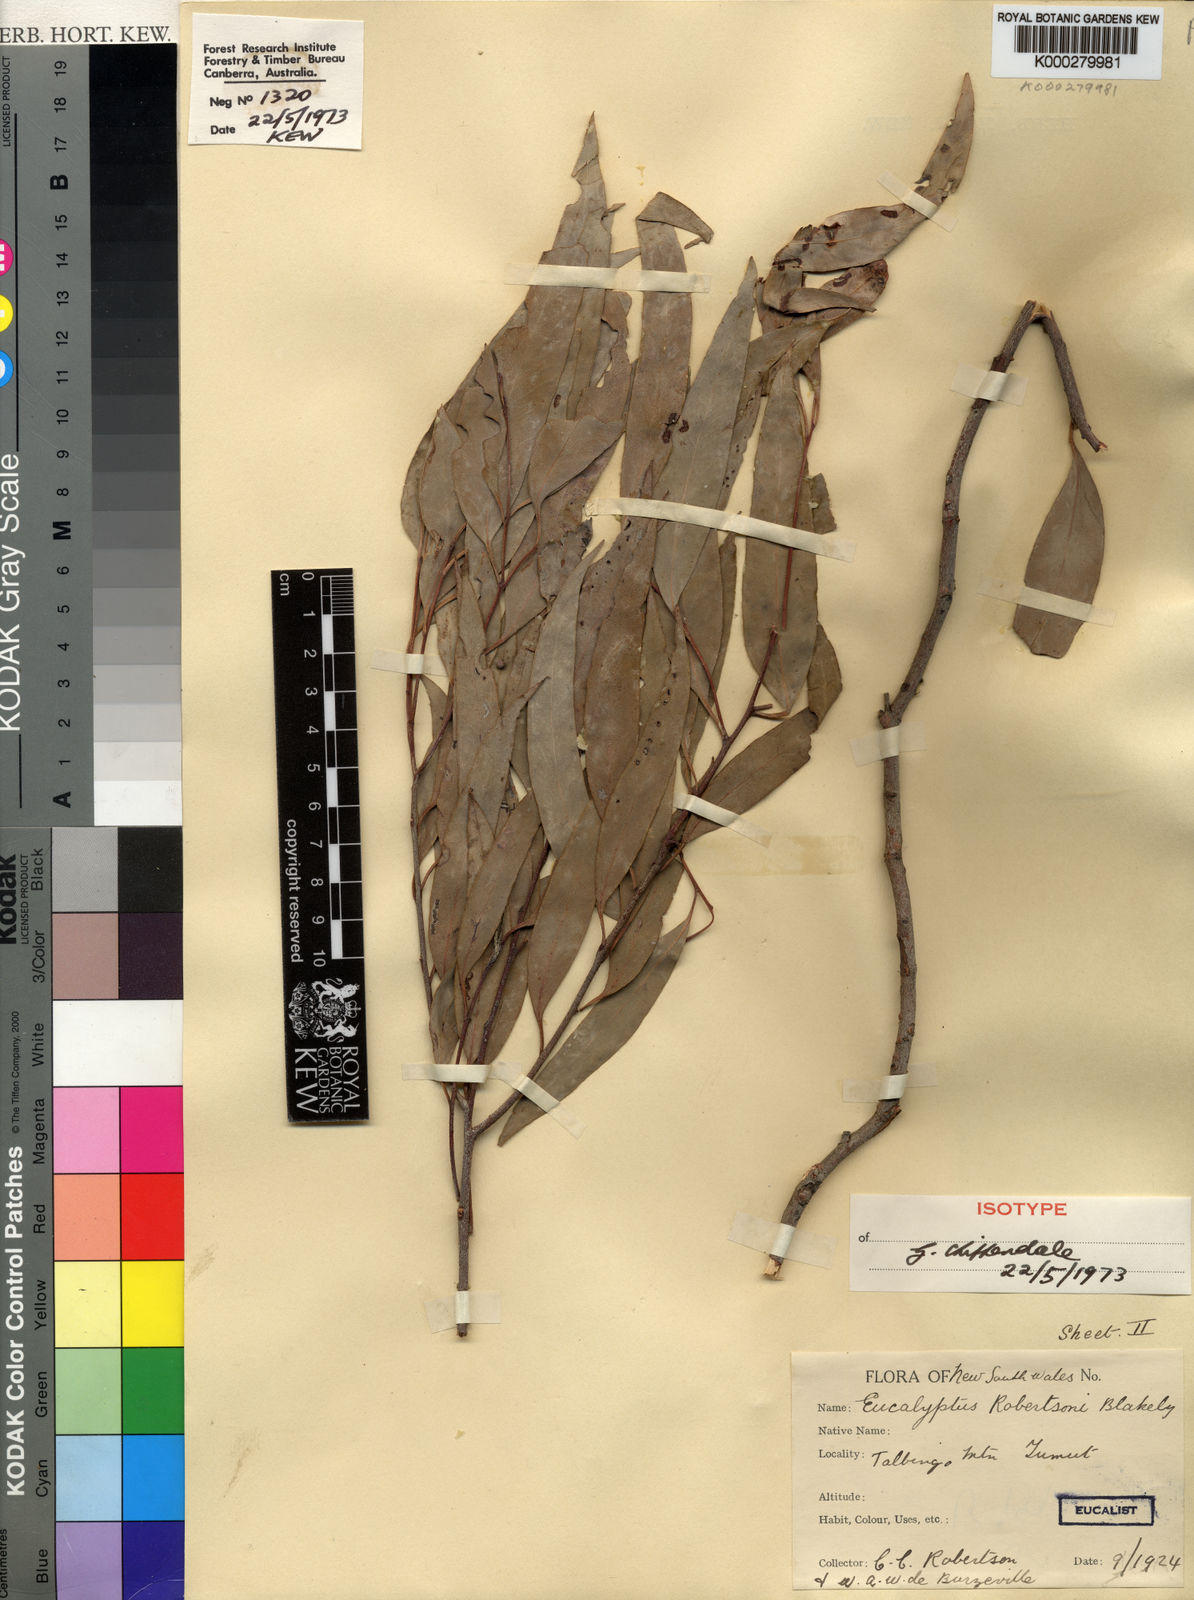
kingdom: Plantae
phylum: Tracheophyta
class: Magnoliopsida
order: Myrtales
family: Myrtaceae
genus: Eucalyptus
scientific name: Eucalyptus robertsonii
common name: Narrow-leaved-peppermint
